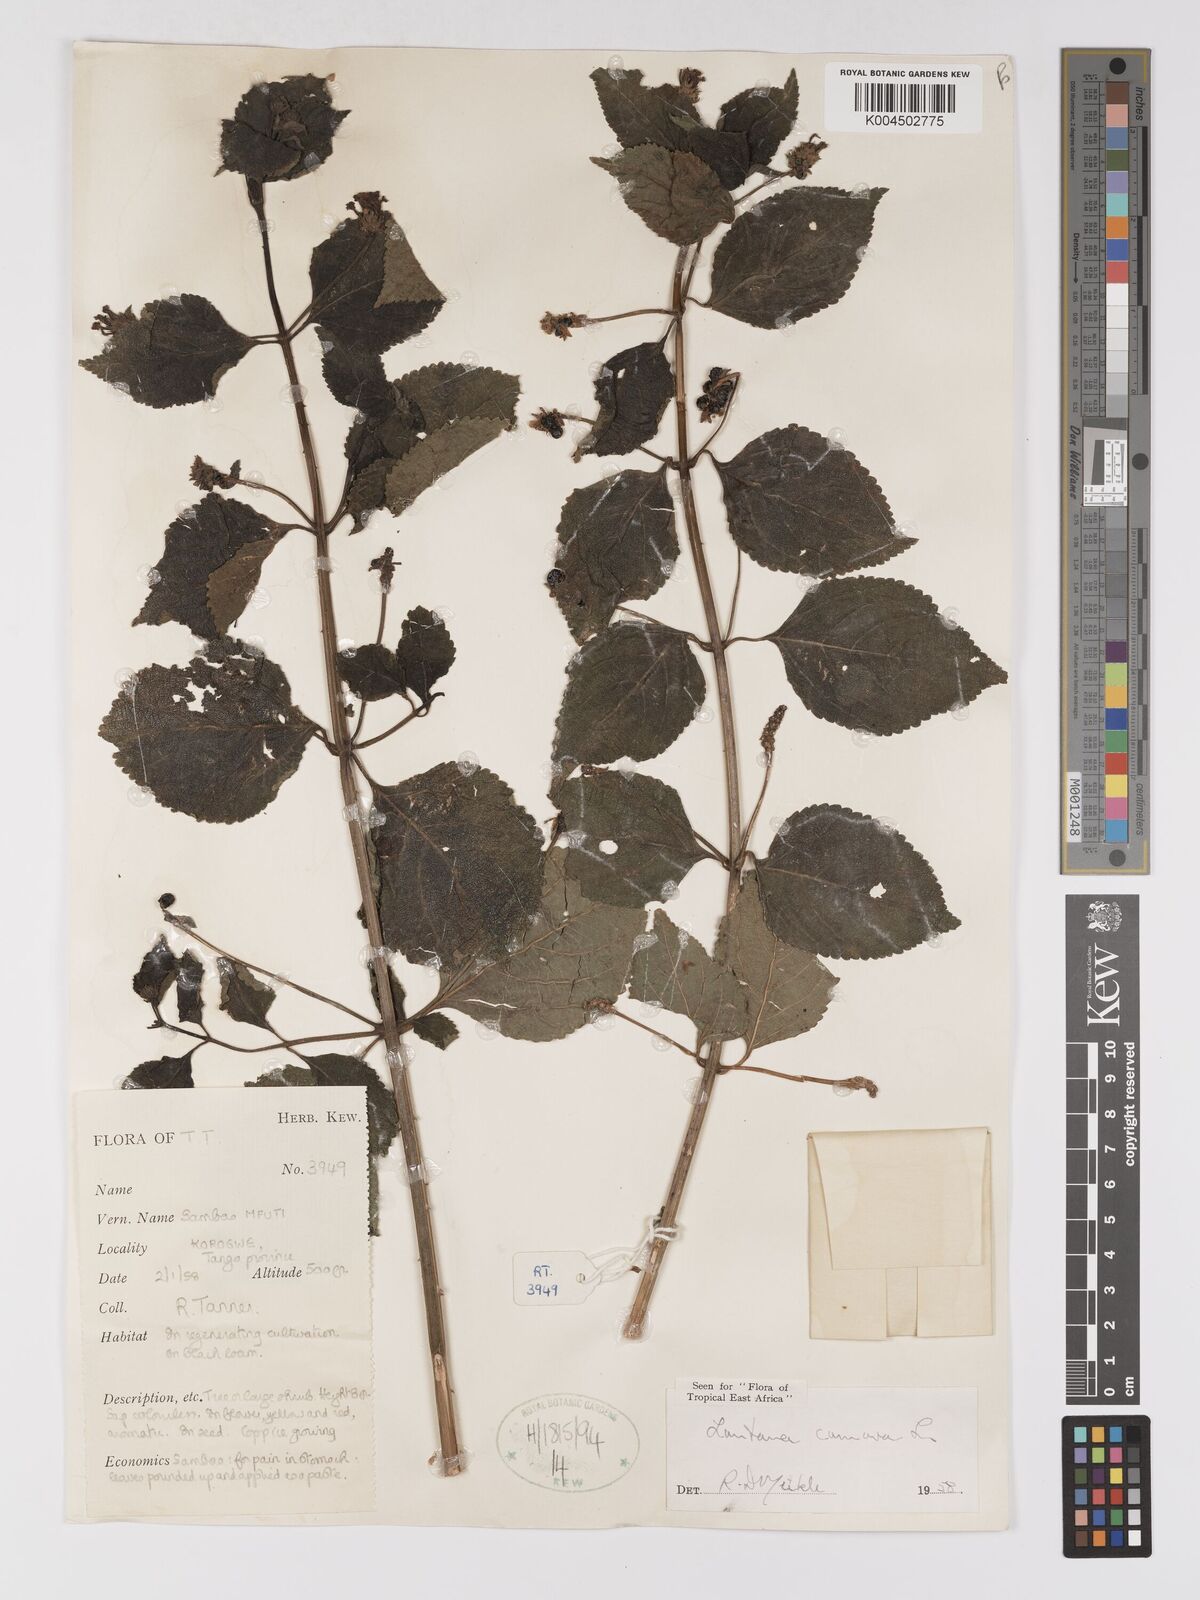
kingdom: Plantae
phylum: Tracheophyta
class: Magnoliopsida
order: Lamiales
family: Verbenaceae
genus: Lantana
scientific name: Lantana camara
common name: Lantana
